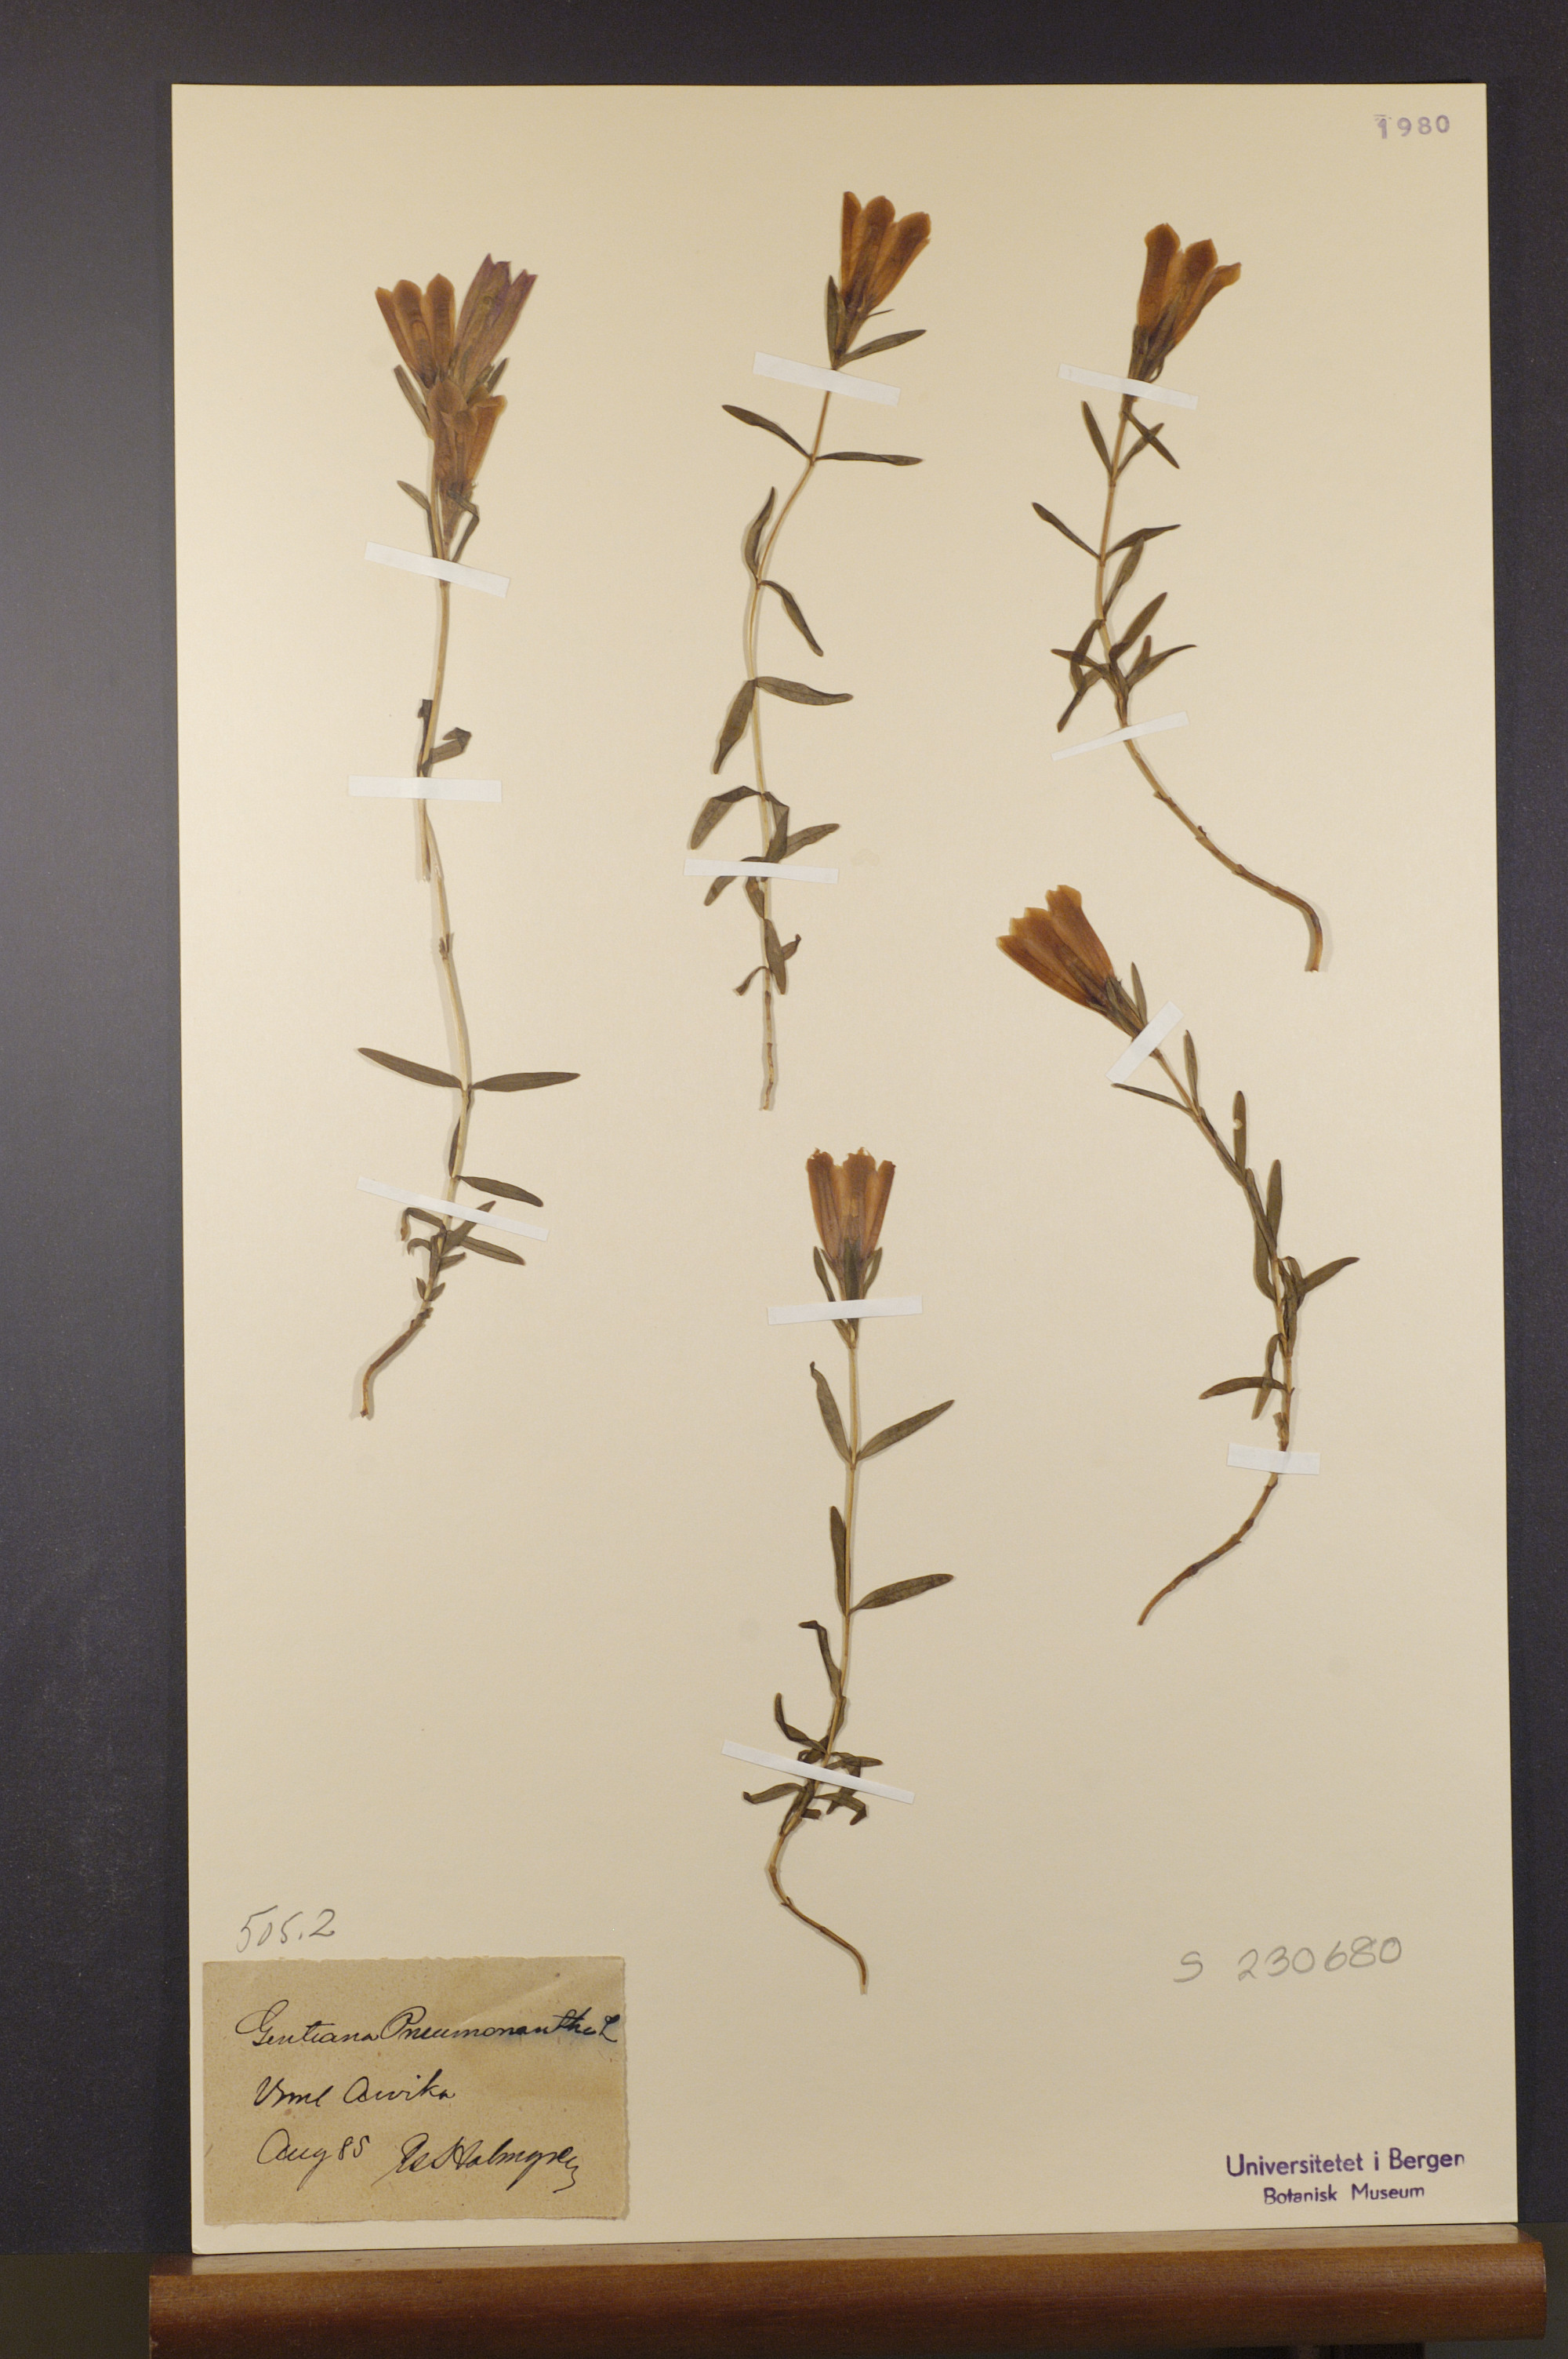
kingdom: Plantae
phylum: Tracheophyta
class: Magnoliopsida
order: Gentianales
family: Gentianaceae
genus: Gentiana
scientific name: Gentiana pneumonanthe
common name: Marsh gentian
